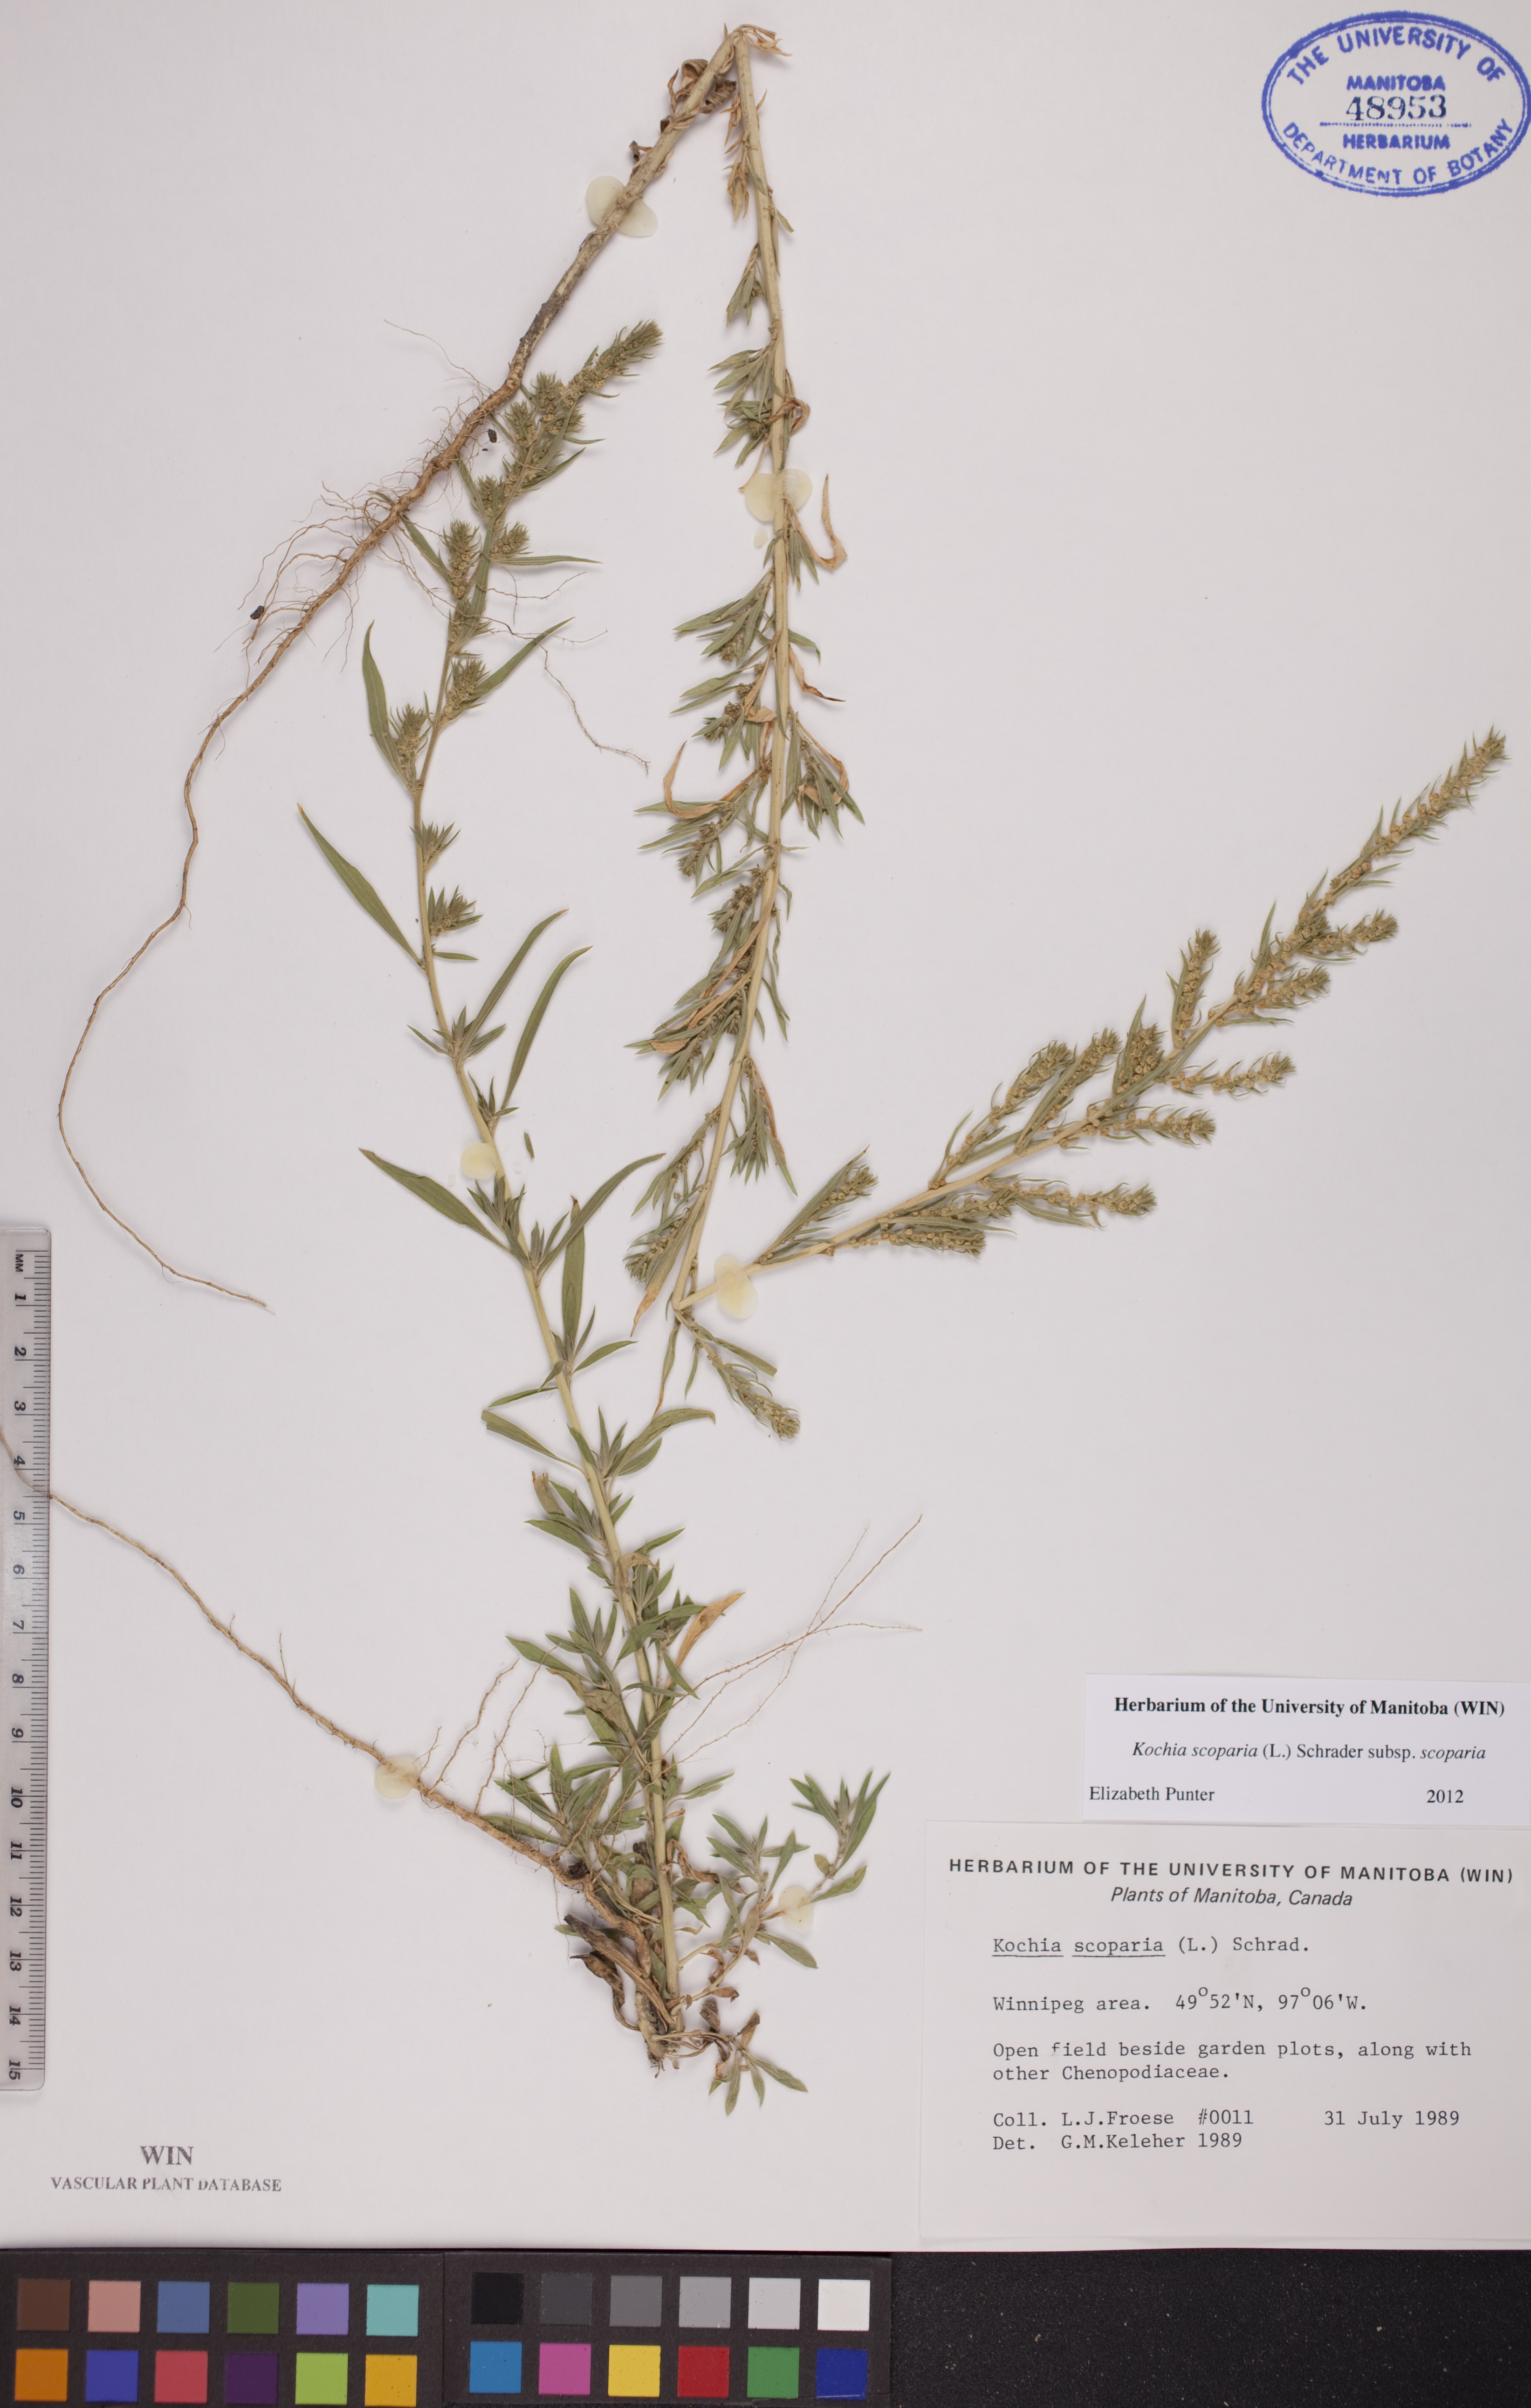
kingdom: Plantae
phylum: Tracheophyta
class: Magnoliopsida
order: Caryophyllales
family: Amaranthaceae
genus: Bassia
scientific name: Bassia scoparia
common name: Belvedere
